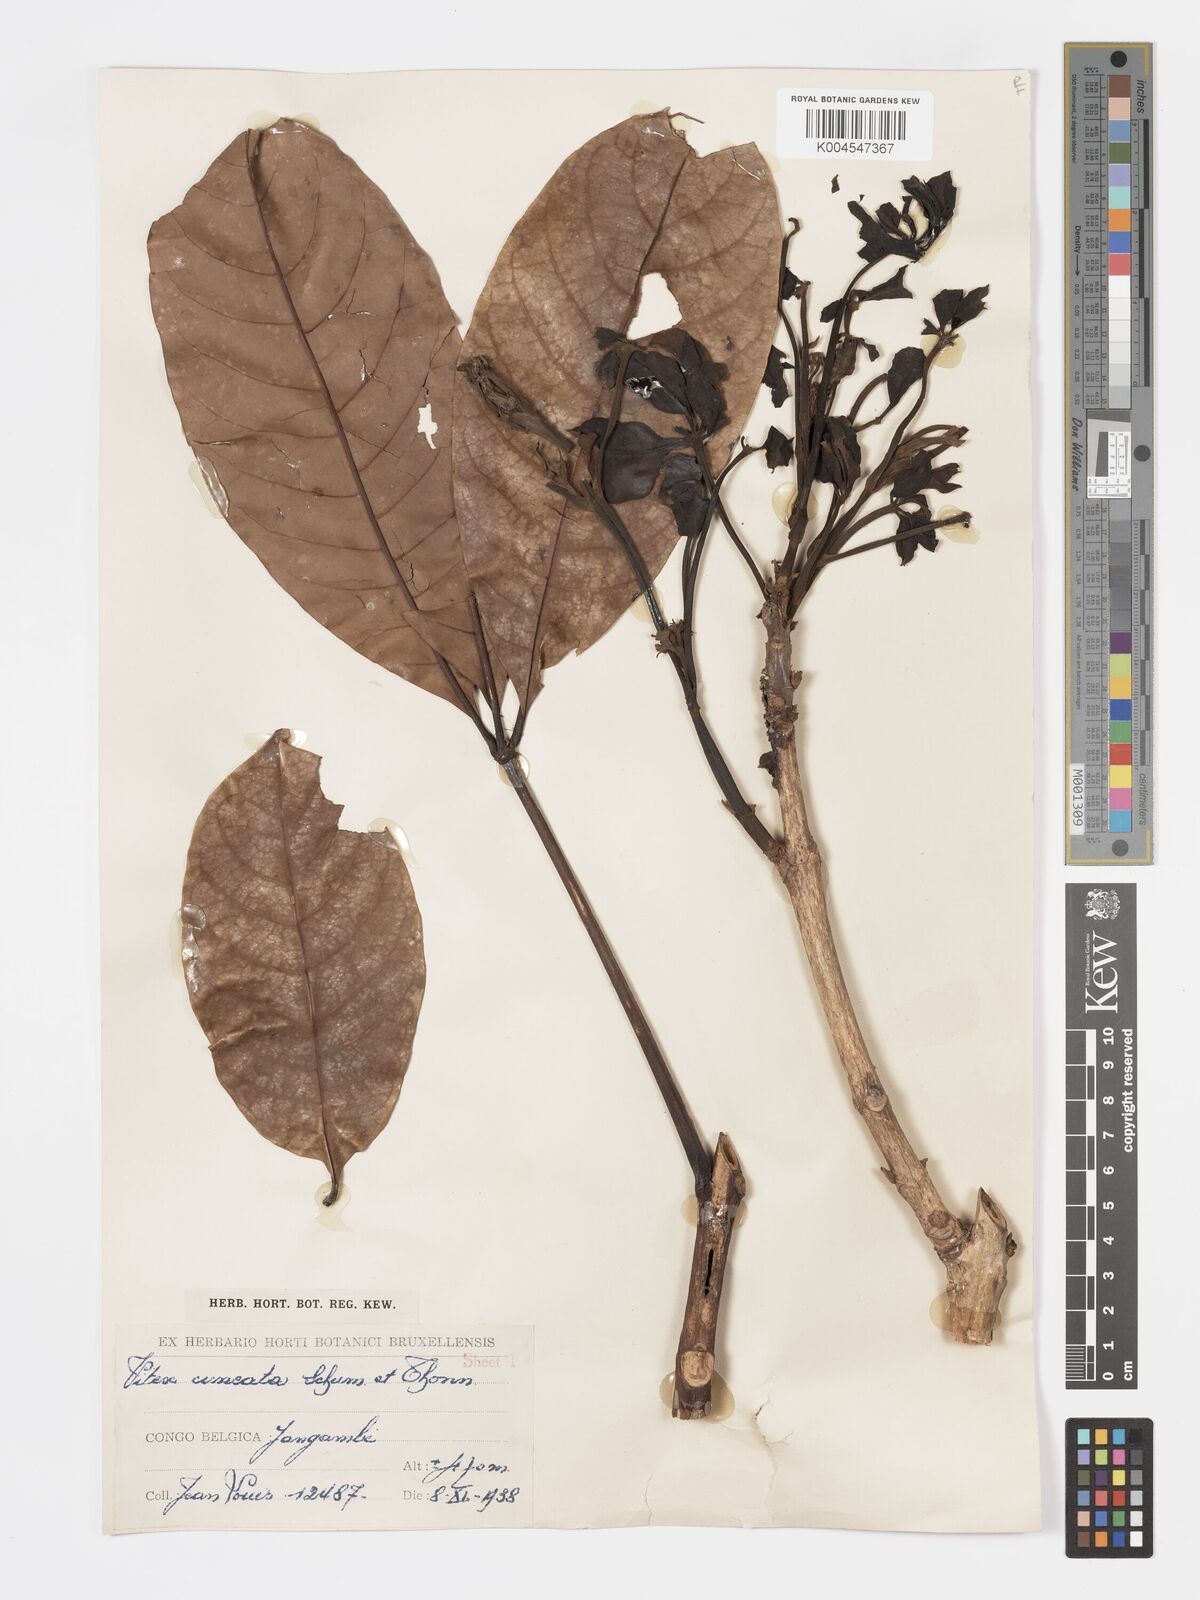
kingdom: Plantae
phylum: Tracheophyta
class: Magnoliopsida
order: Lamiales
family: Lamiaceae
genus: Vitex
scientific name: Vitex doniana
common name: Black plum
